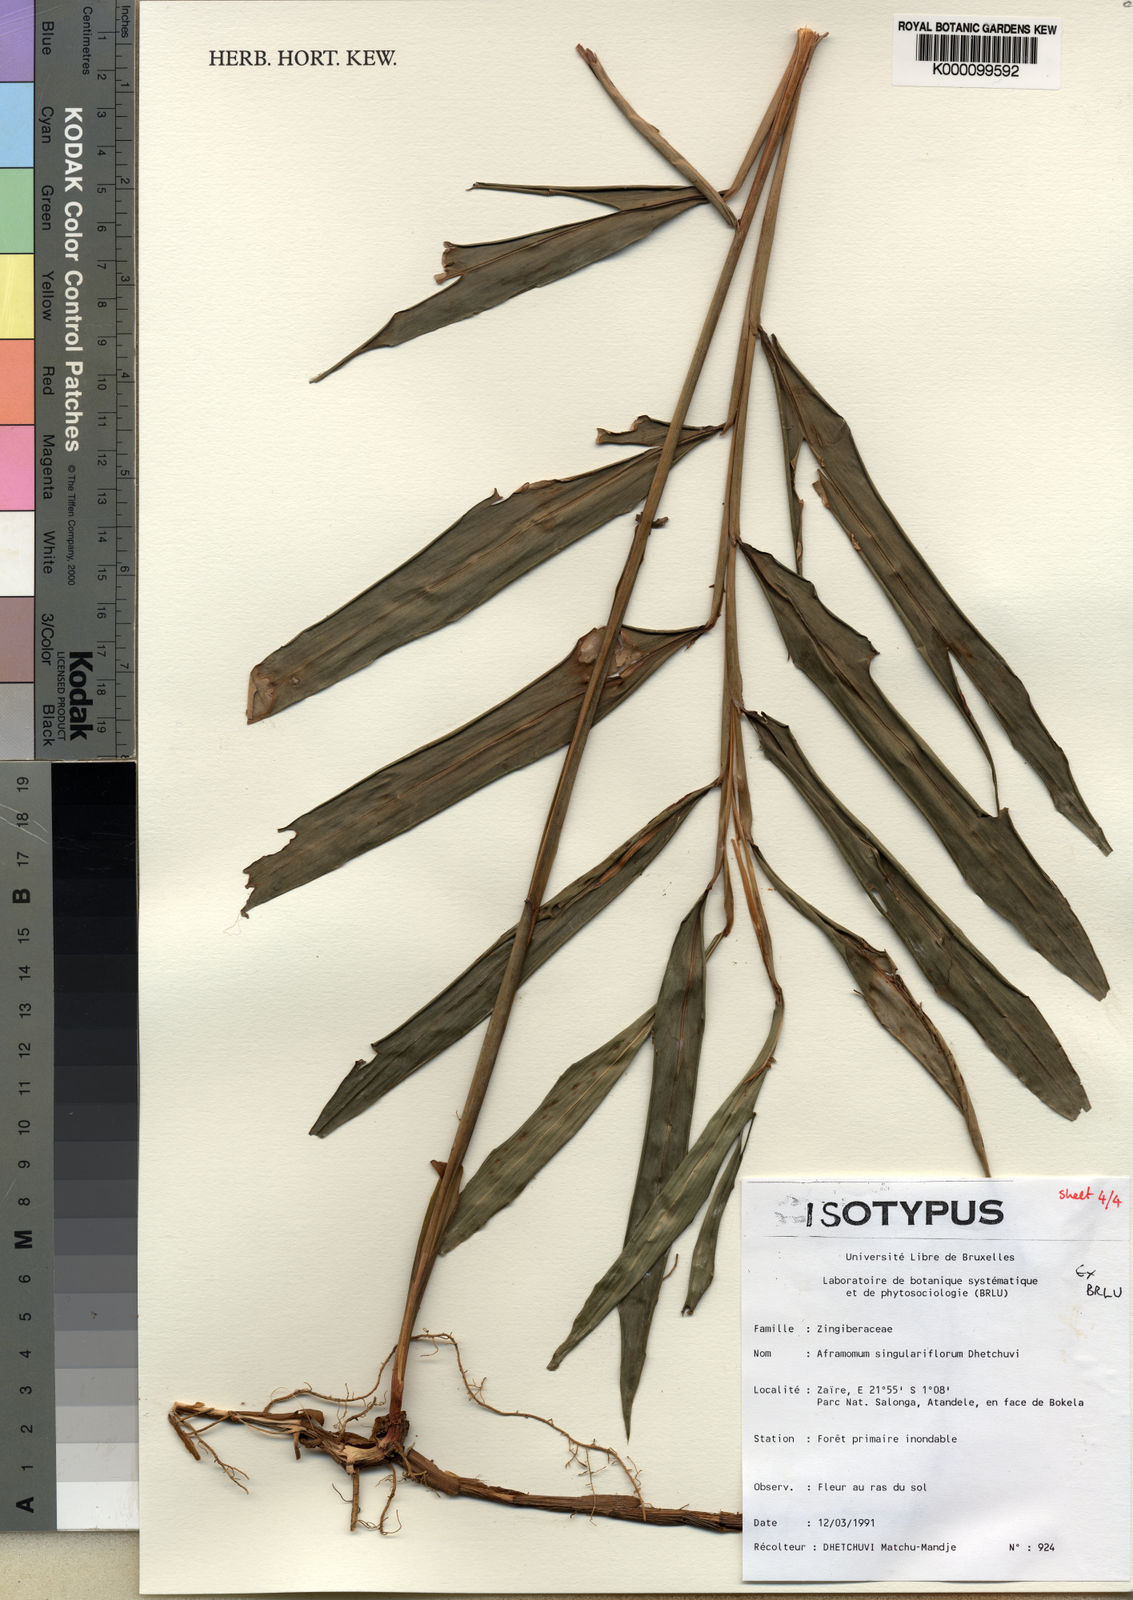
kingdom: Plantae
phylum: Tracheophyta
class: Liliopsida
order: Zingiberales
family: Zingiberaceae
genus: Aframomum
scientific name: Aframomum singulariflorum
